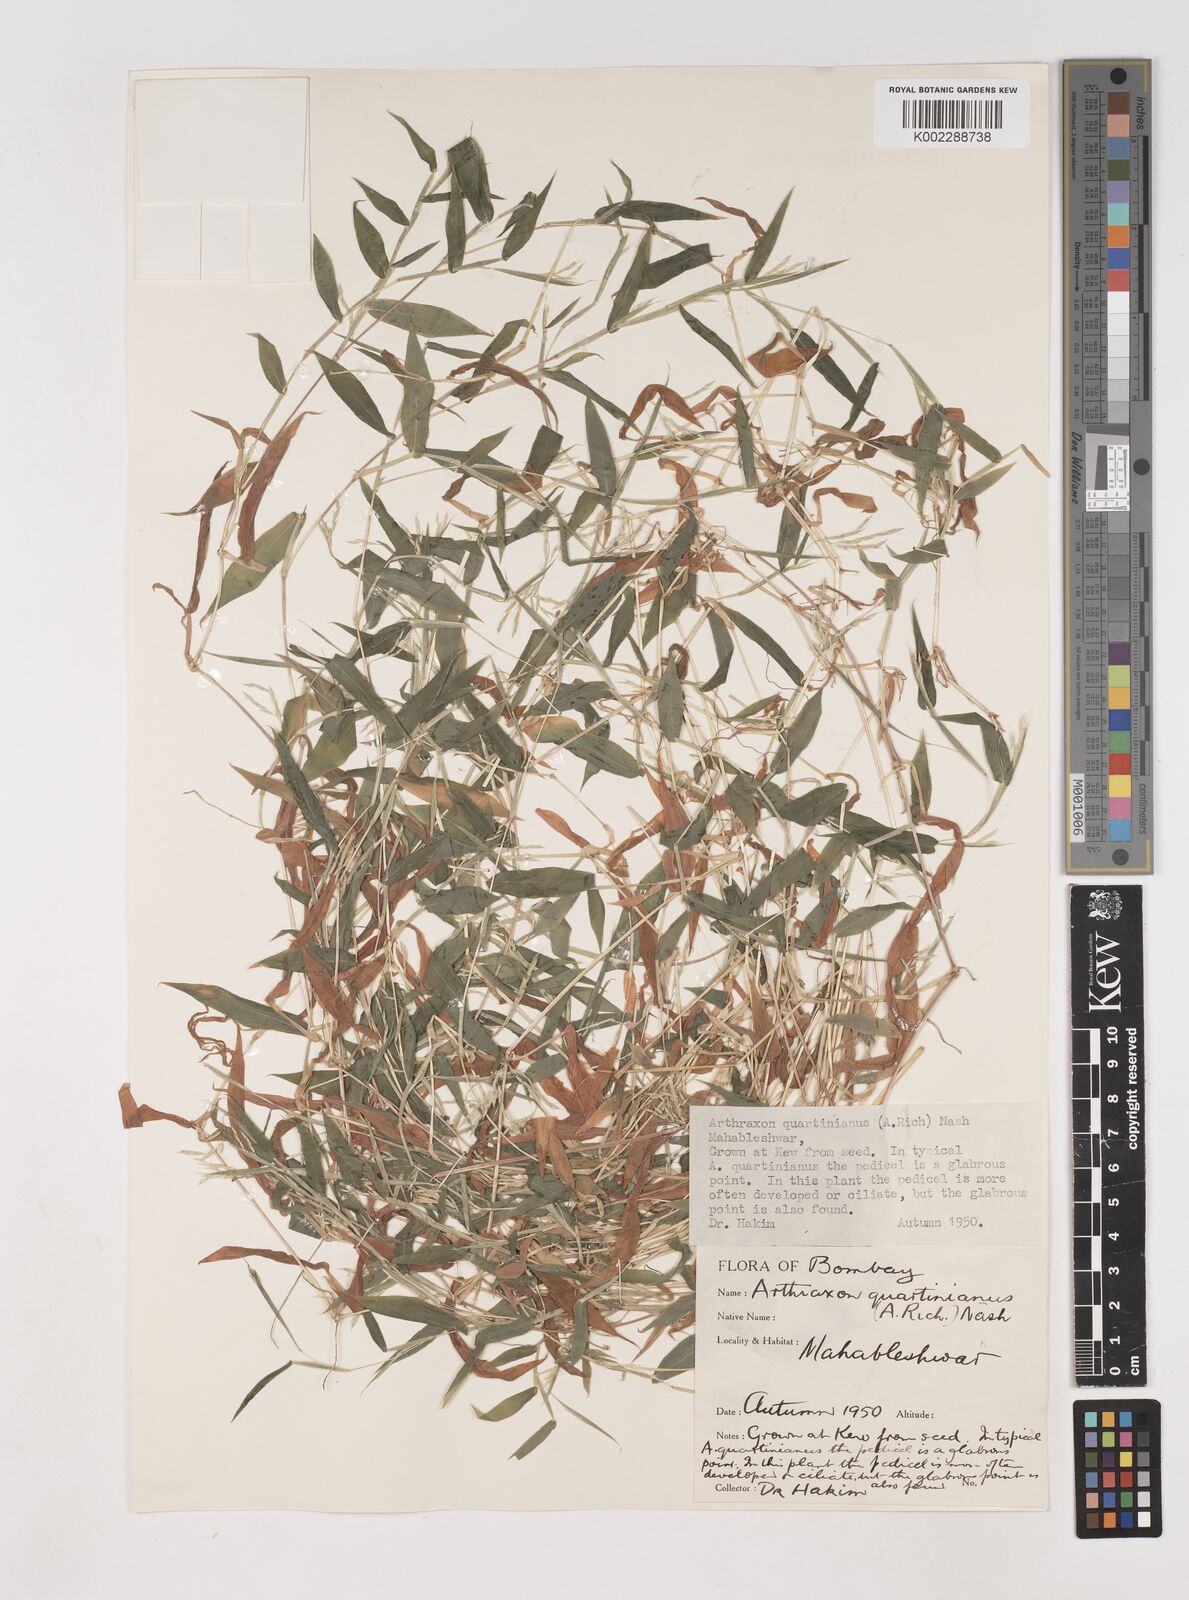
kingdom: Plantae
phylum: Tracheophyta
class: Liliopsida
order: Poales
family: Poaceae
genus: Arthraxon
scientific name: Arthraxon hispidus
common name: Small carpgrass
